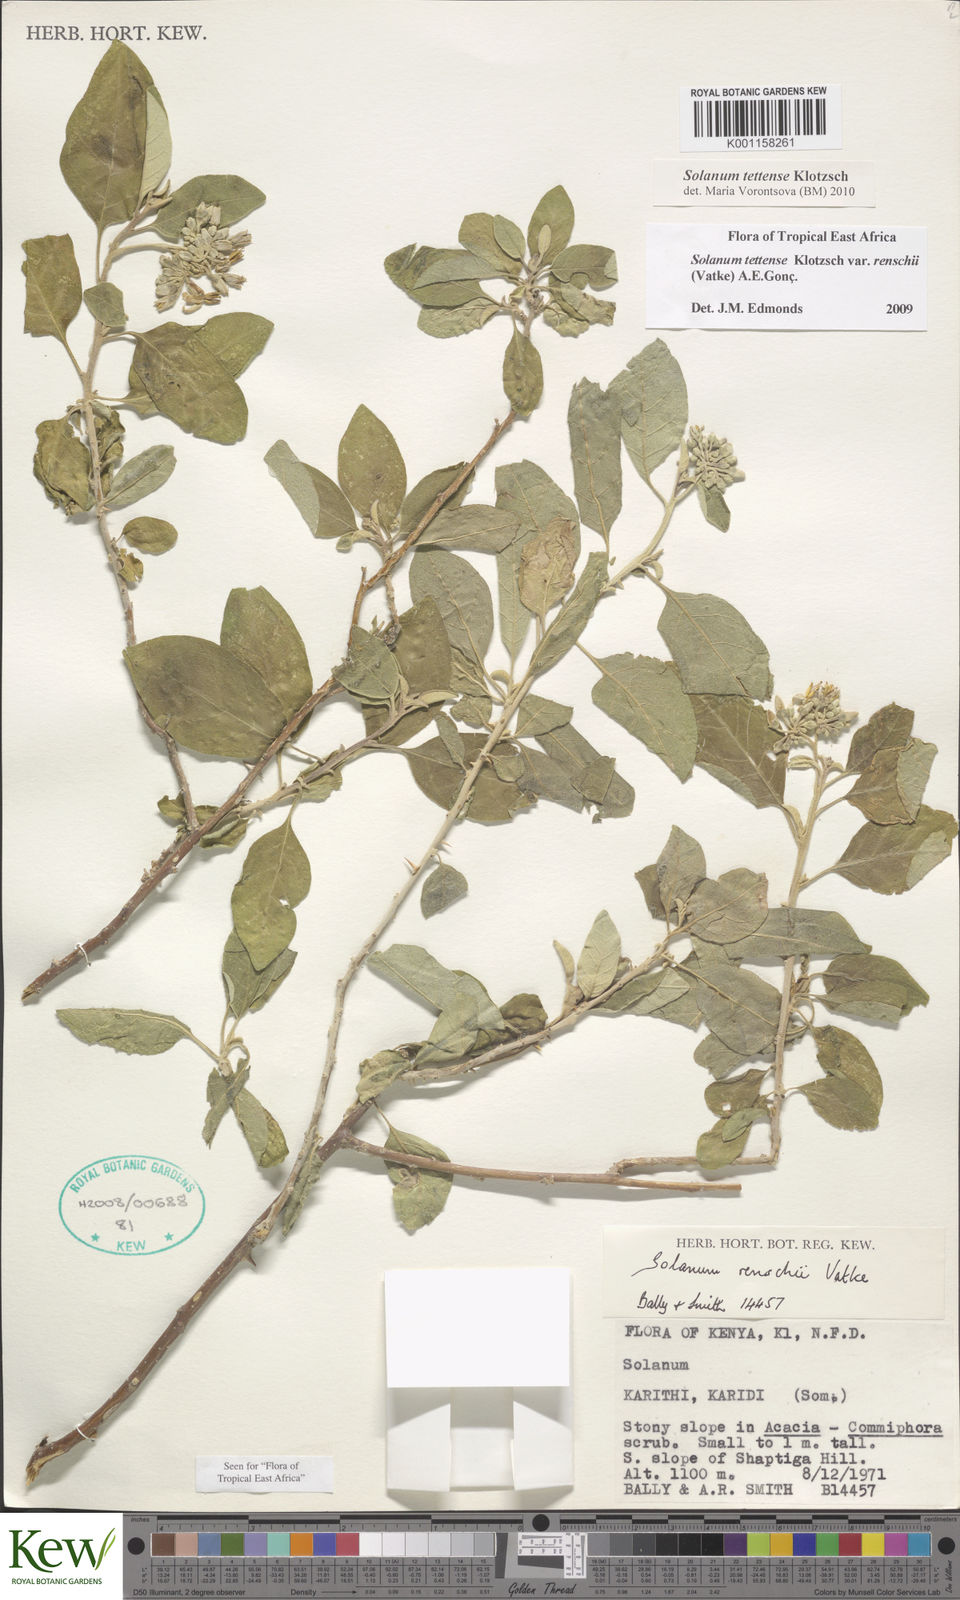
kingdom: Plantae
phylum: Tracheophyta
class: Magnoliopsida
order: Solanales
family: Solanaceae
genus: Solanum
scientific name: Solanum tettense
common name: Mozambique bitter apple
